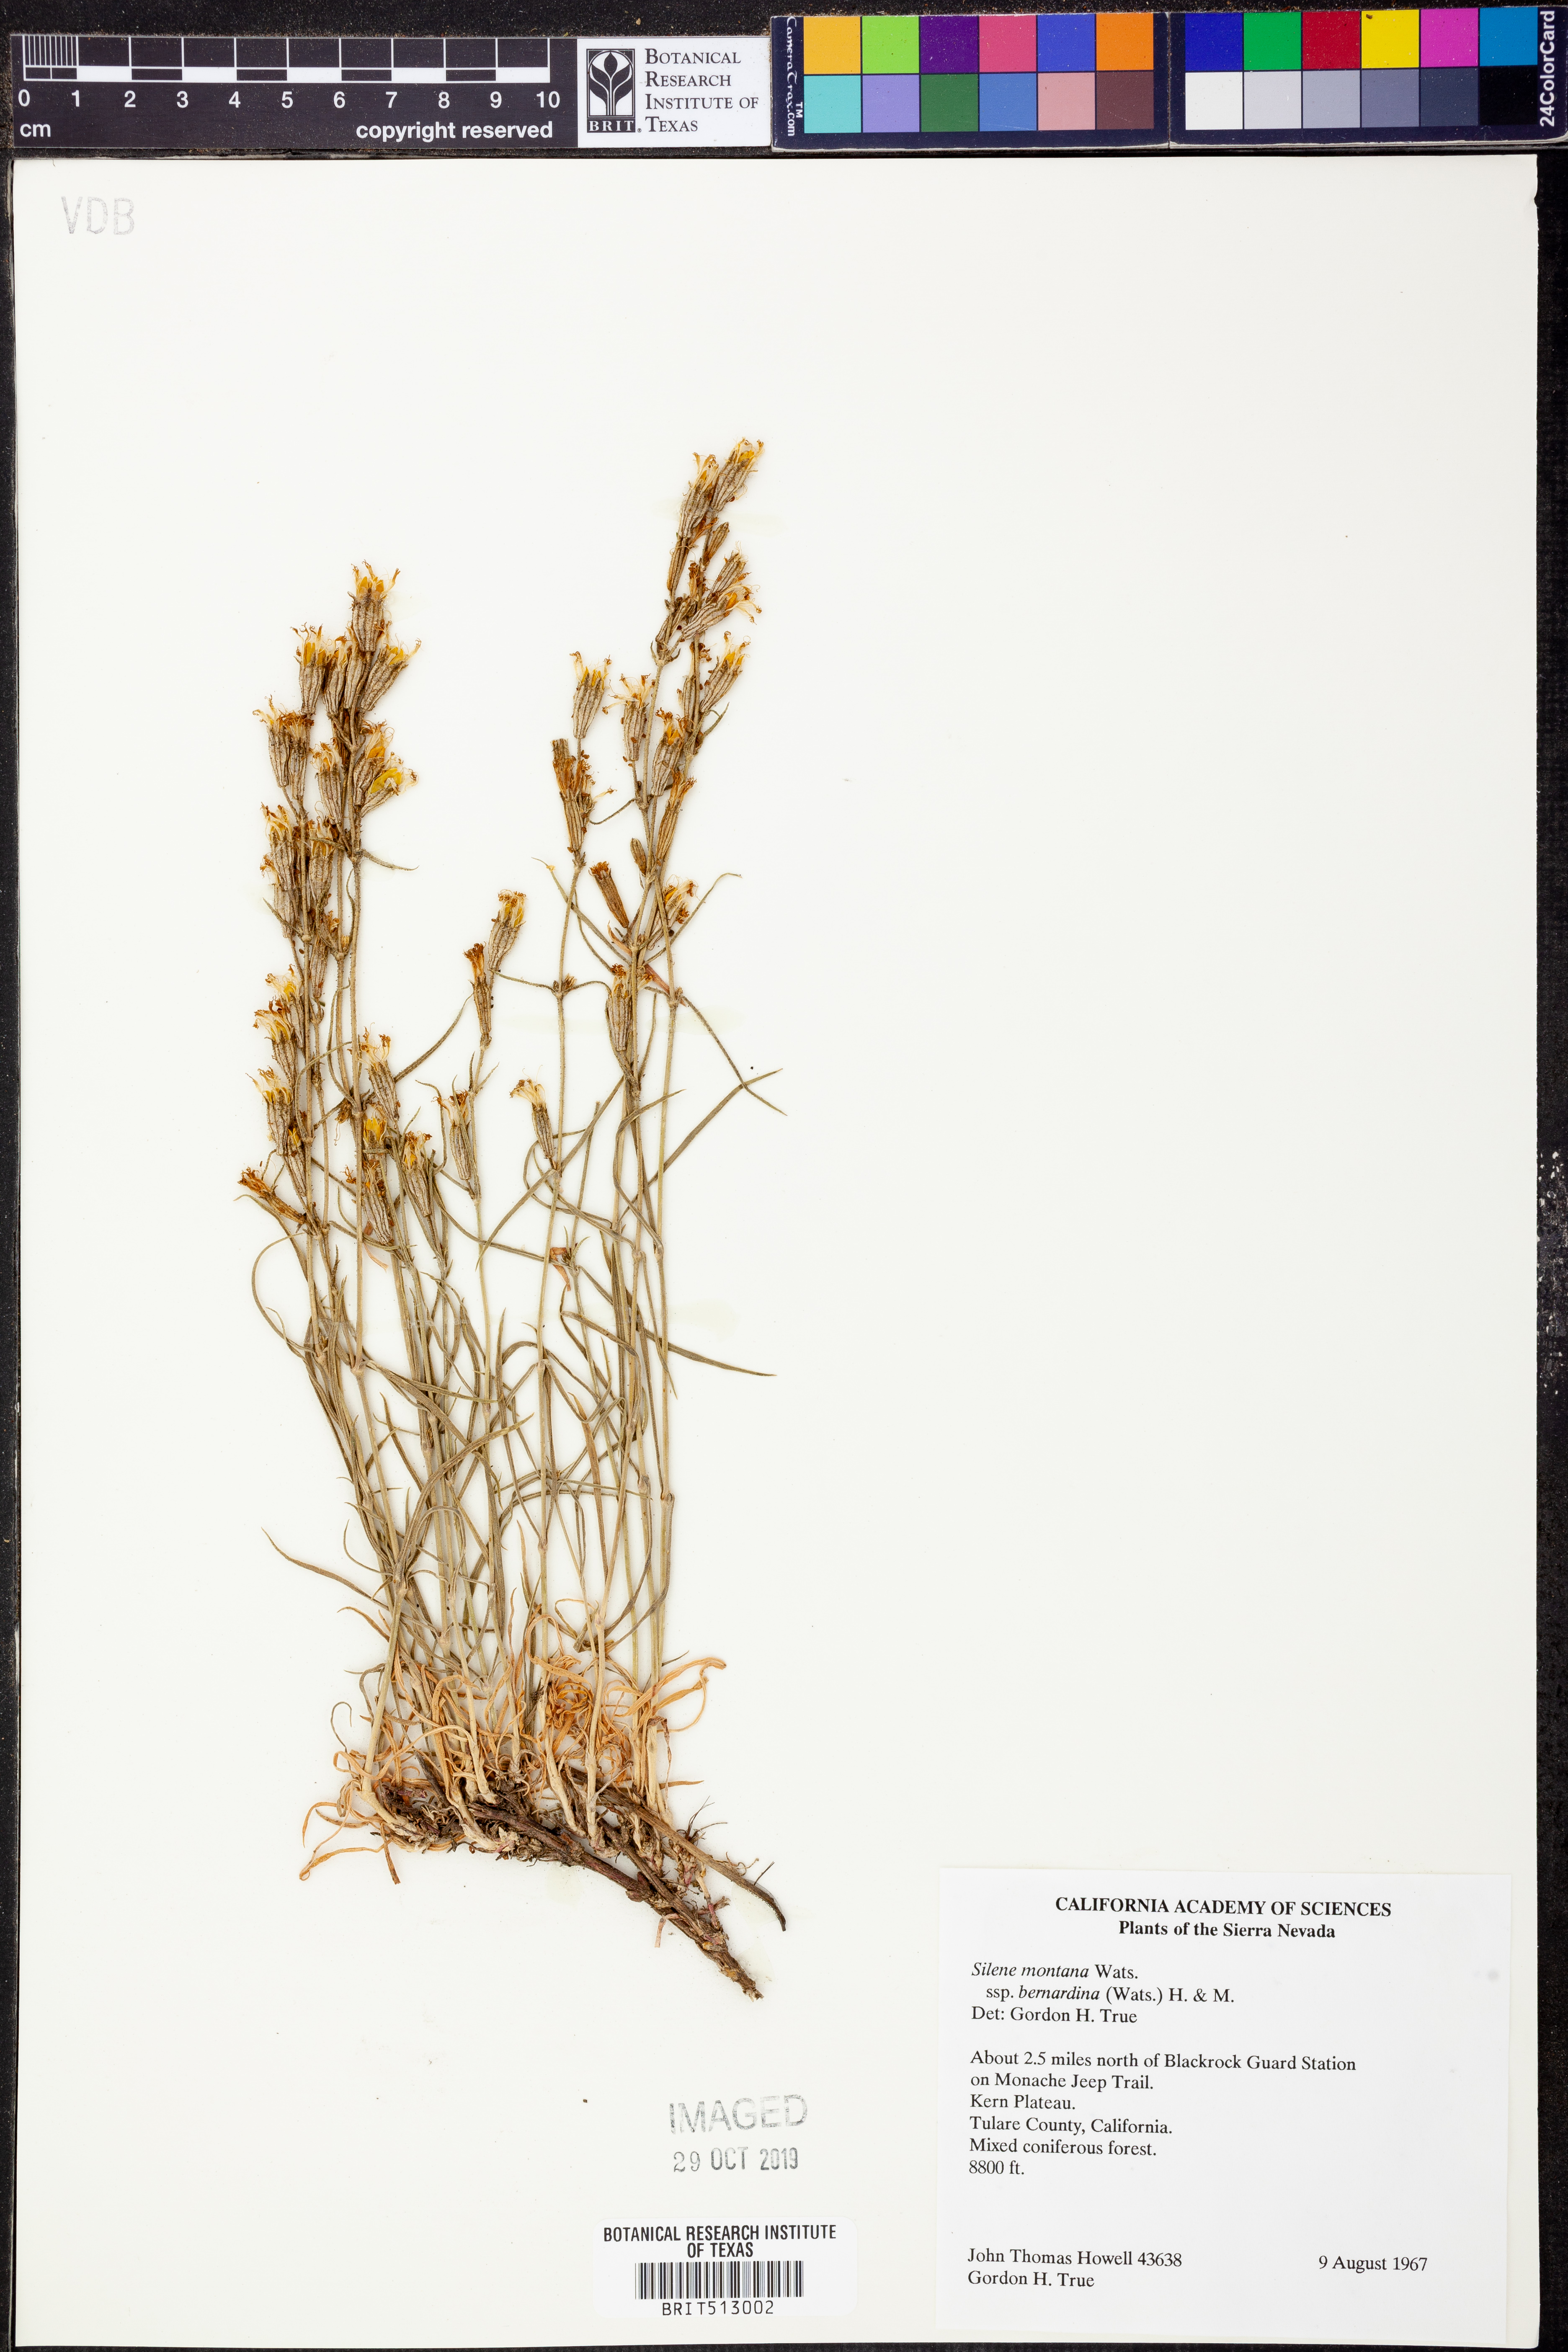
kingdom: Plantae
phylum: Tracheophyta
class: Magnoliopsida
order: Caryophyllales
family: Caryophyllaceae
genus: Silene
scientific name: Silene bernardina
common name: Palmer's catchfly
